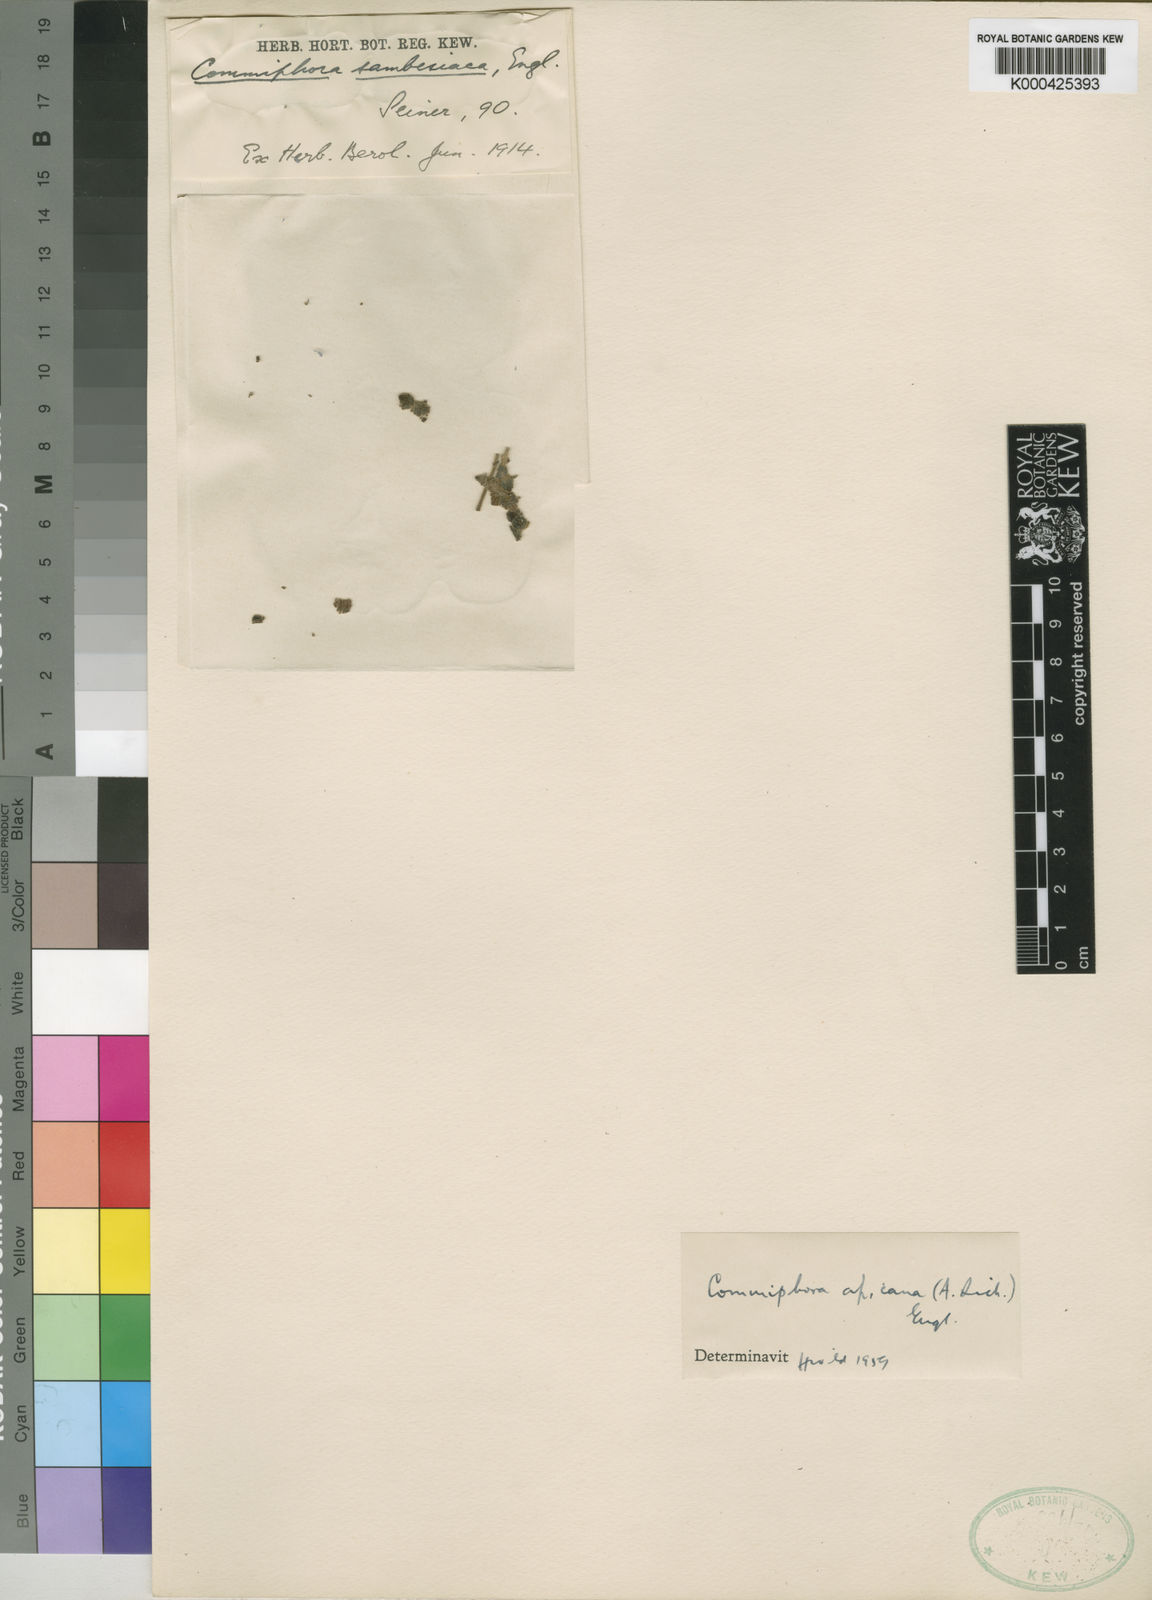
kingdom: Plantae
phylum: Tracheophyta
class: Magnoliopsida
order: Sapindales
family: Burseraceae
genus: Commiphora
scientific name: Commiphora africana
